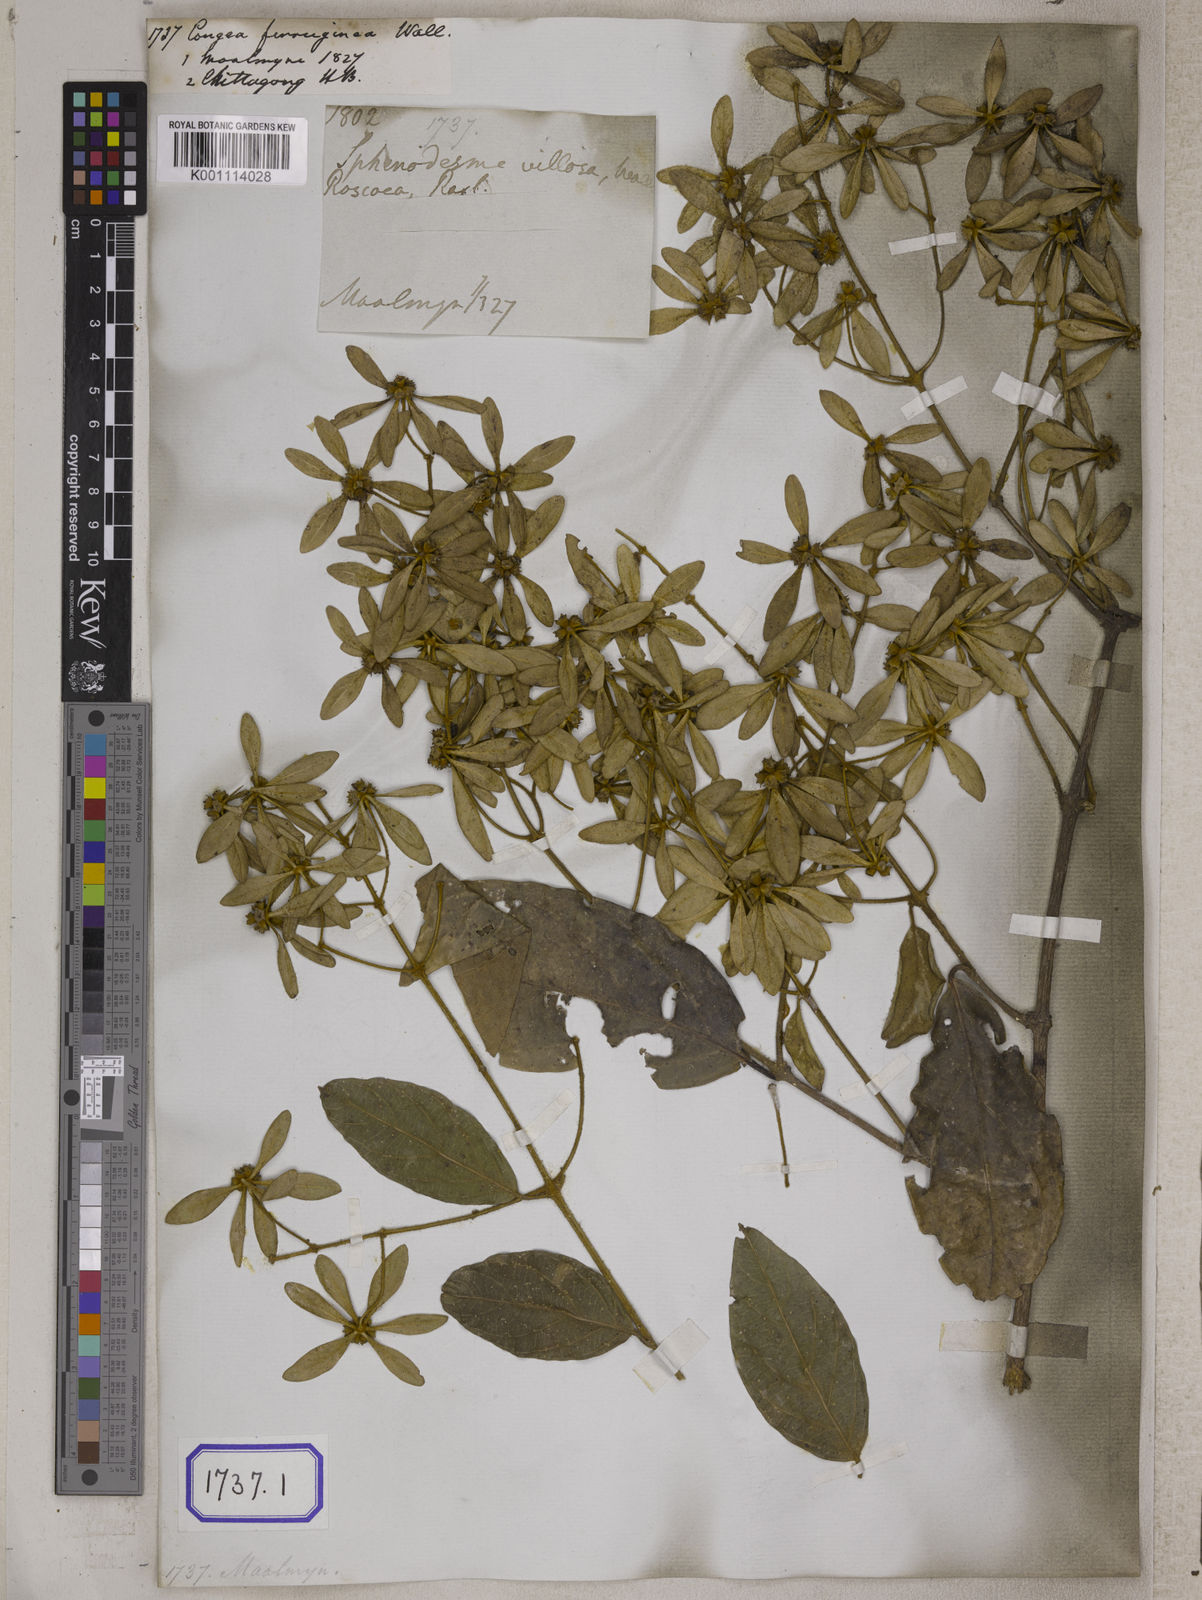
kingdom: Plantae
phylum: Tracheophyta
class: Magnoliopsida
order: Lamiales
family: Lamiaceae
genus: Sphenodesme
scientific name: Sphenodesme involucrata
